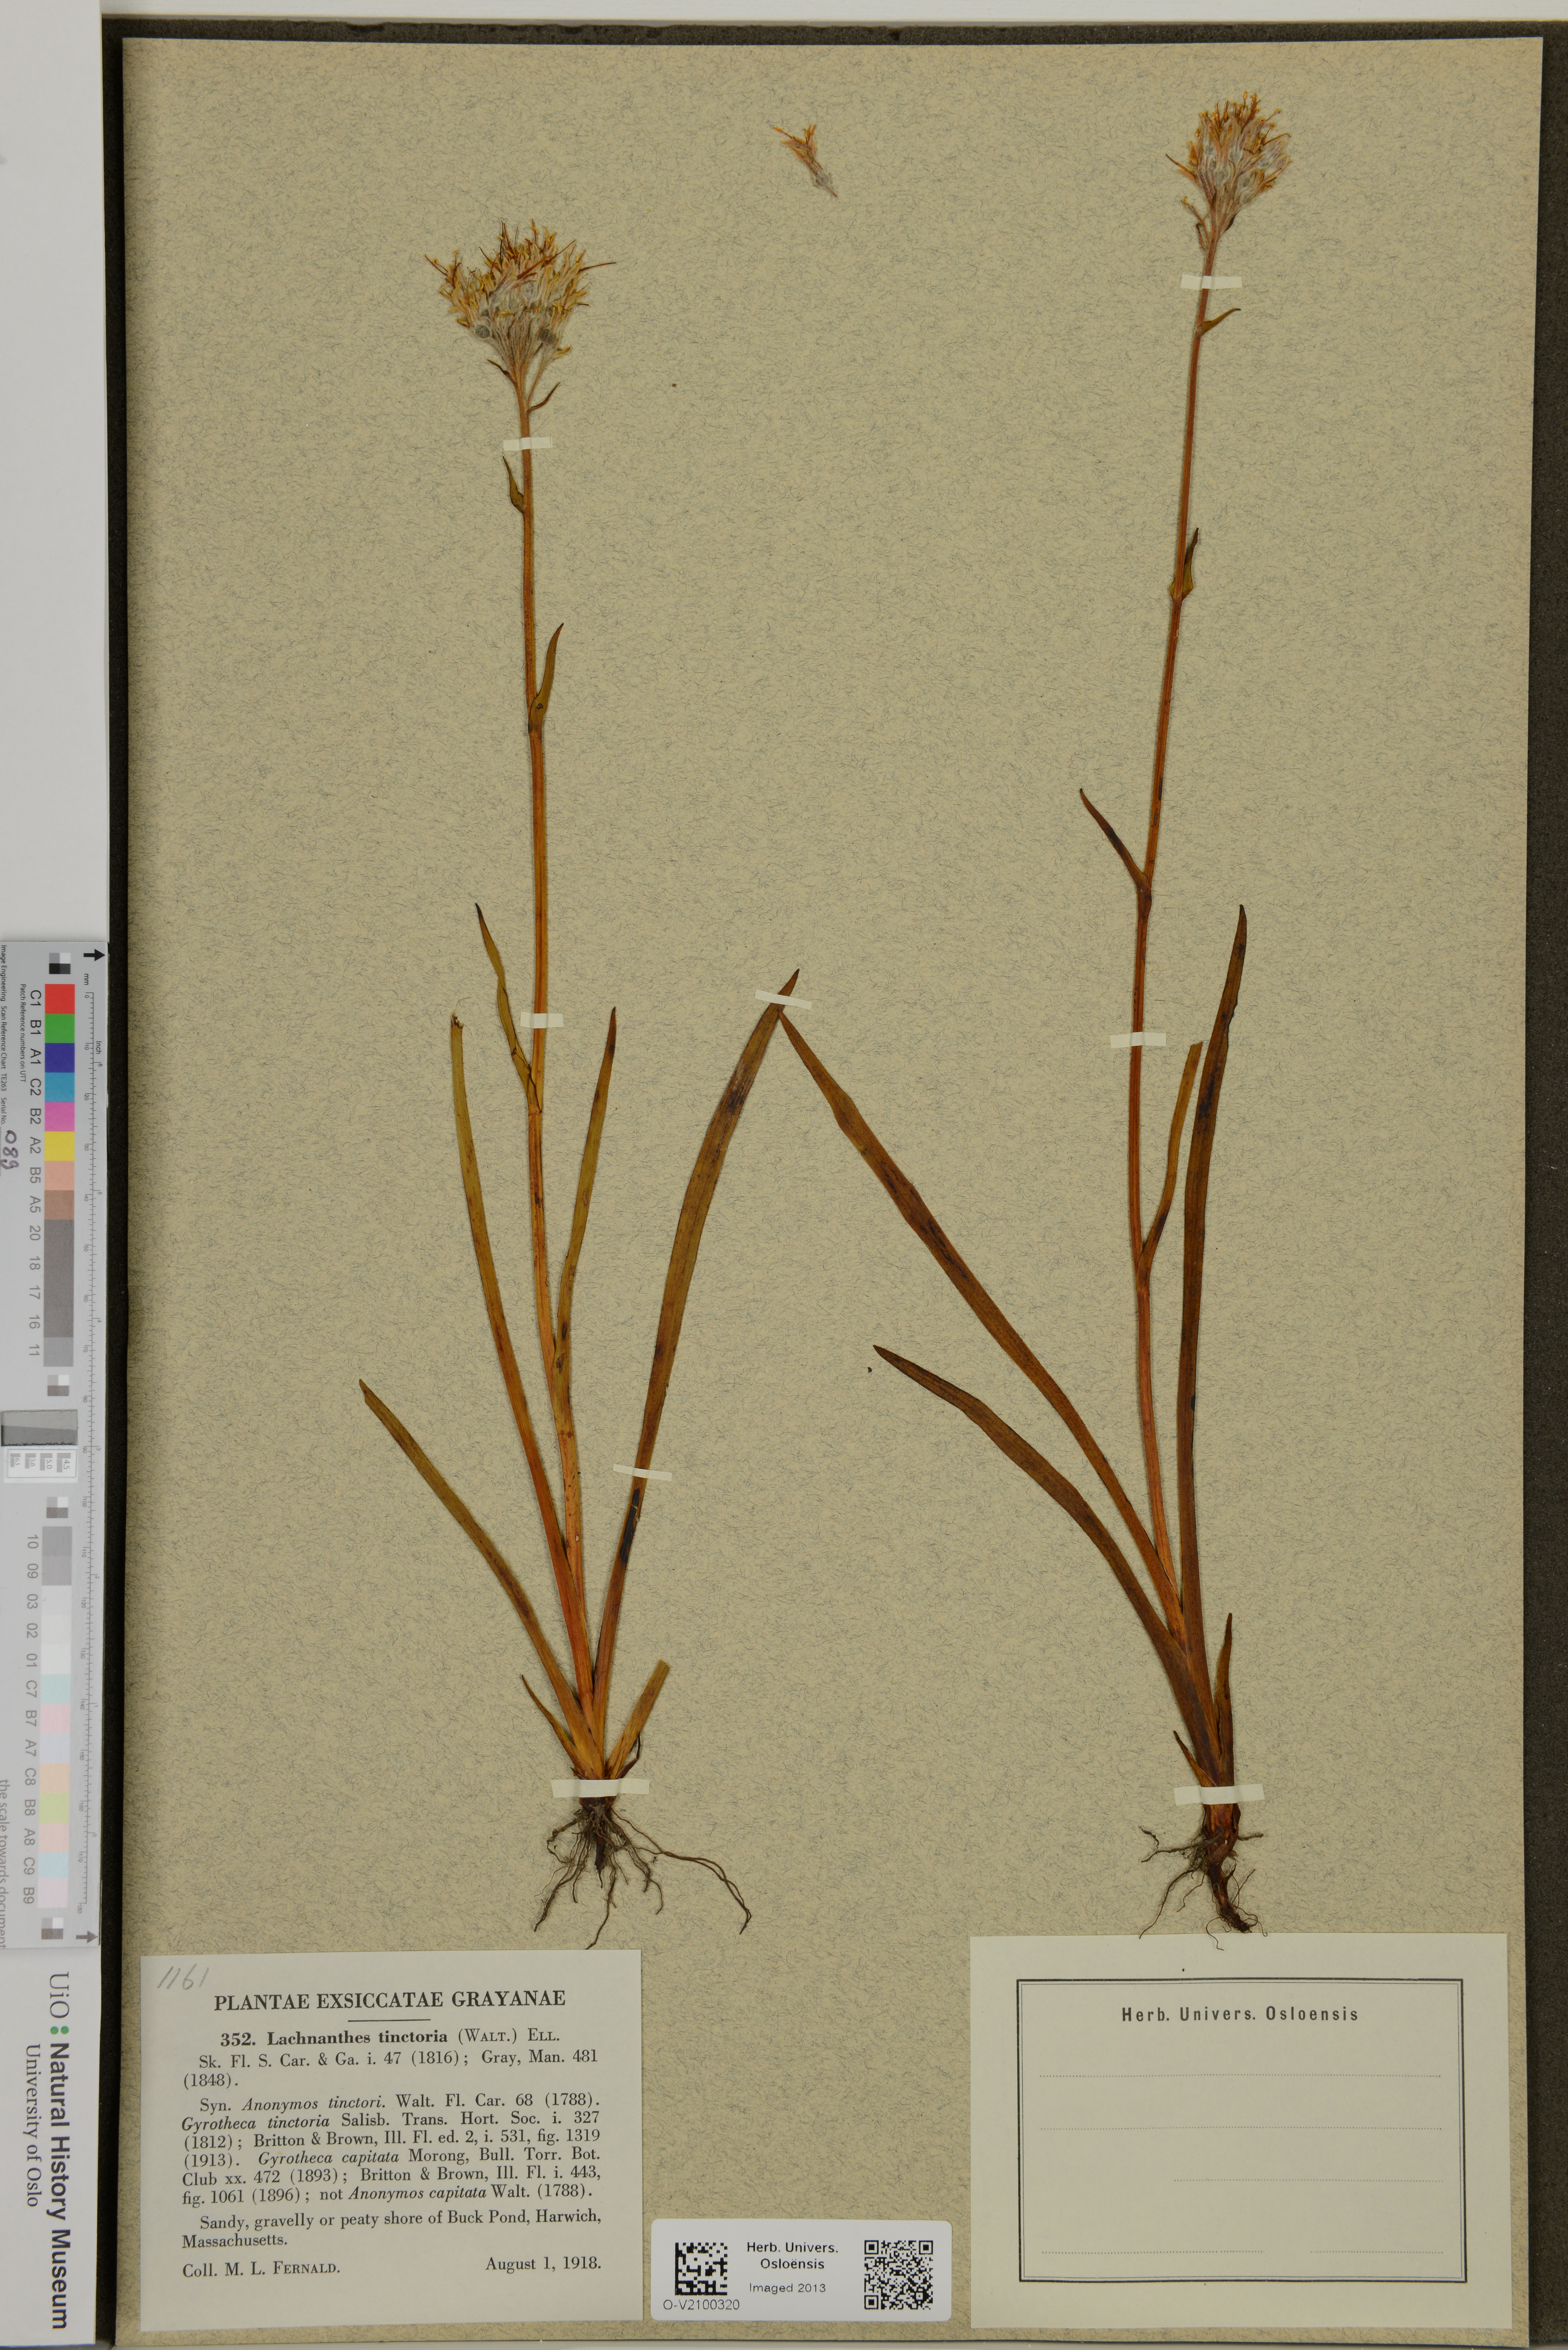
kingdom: Plantae
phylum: Tracheophyta
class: Liliopsida
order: Commelinales
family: Haemodoraceae
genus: Lachnanthes
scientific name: Lachnanthes caroliniana
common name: Carolina redroot
